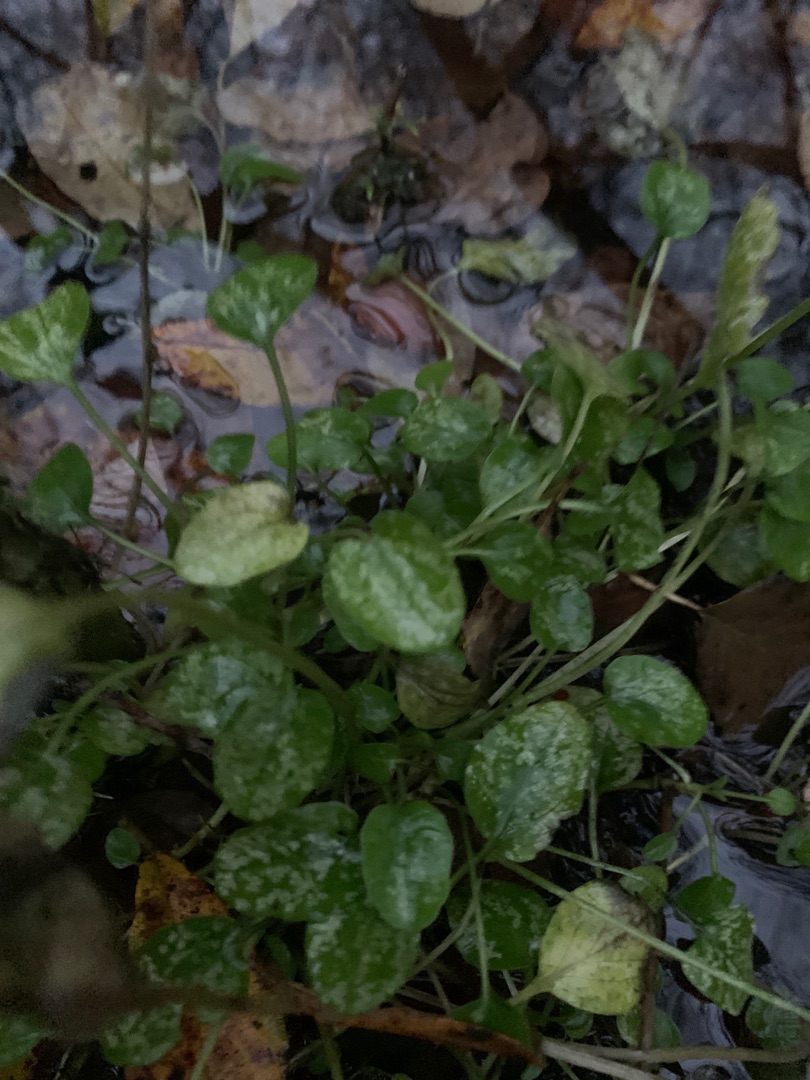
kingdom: Plantae
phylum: Tracheophyta
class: Magnoliopsida
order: Dipsacales
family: Caprifoliaceae
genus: Valeriana
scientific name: Valeriana dioica
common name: Tvebo baldrian
